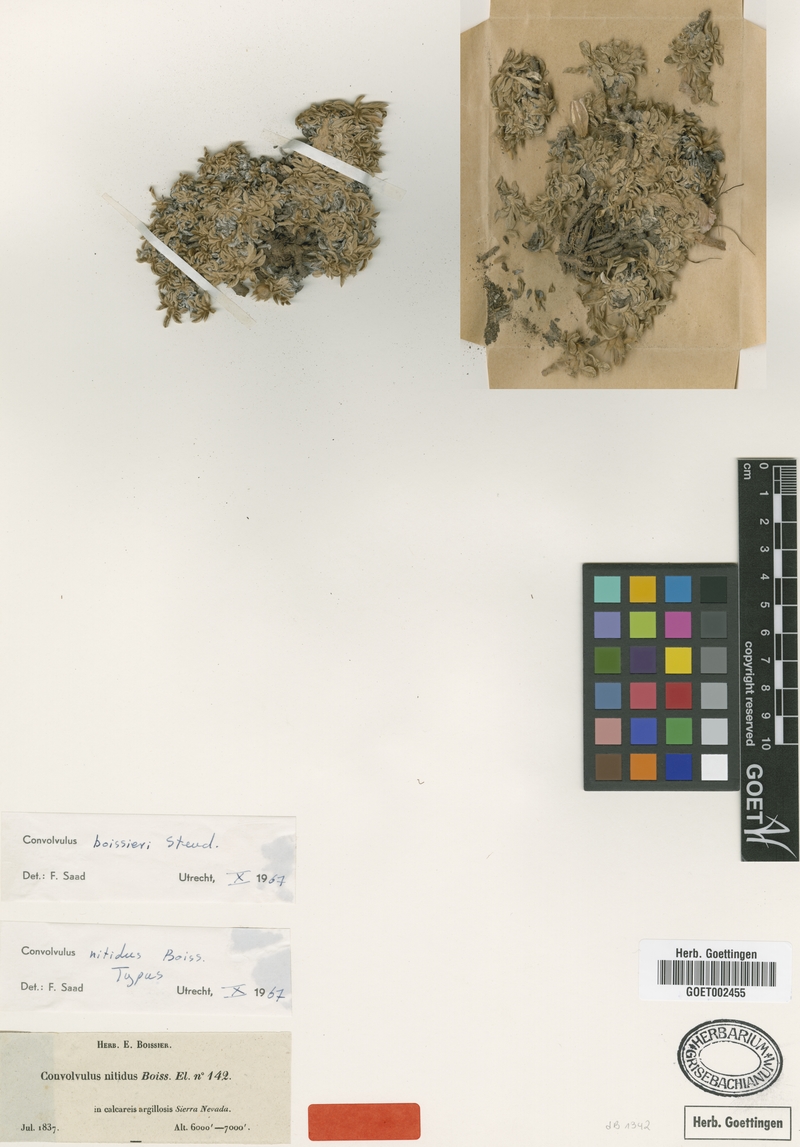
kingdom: Plantae
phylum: Tracheophyta
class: Magnoliopsida
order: Solanales
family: Convolvulaceae
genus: Convolvulus
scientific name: Convolvulus boissieri
